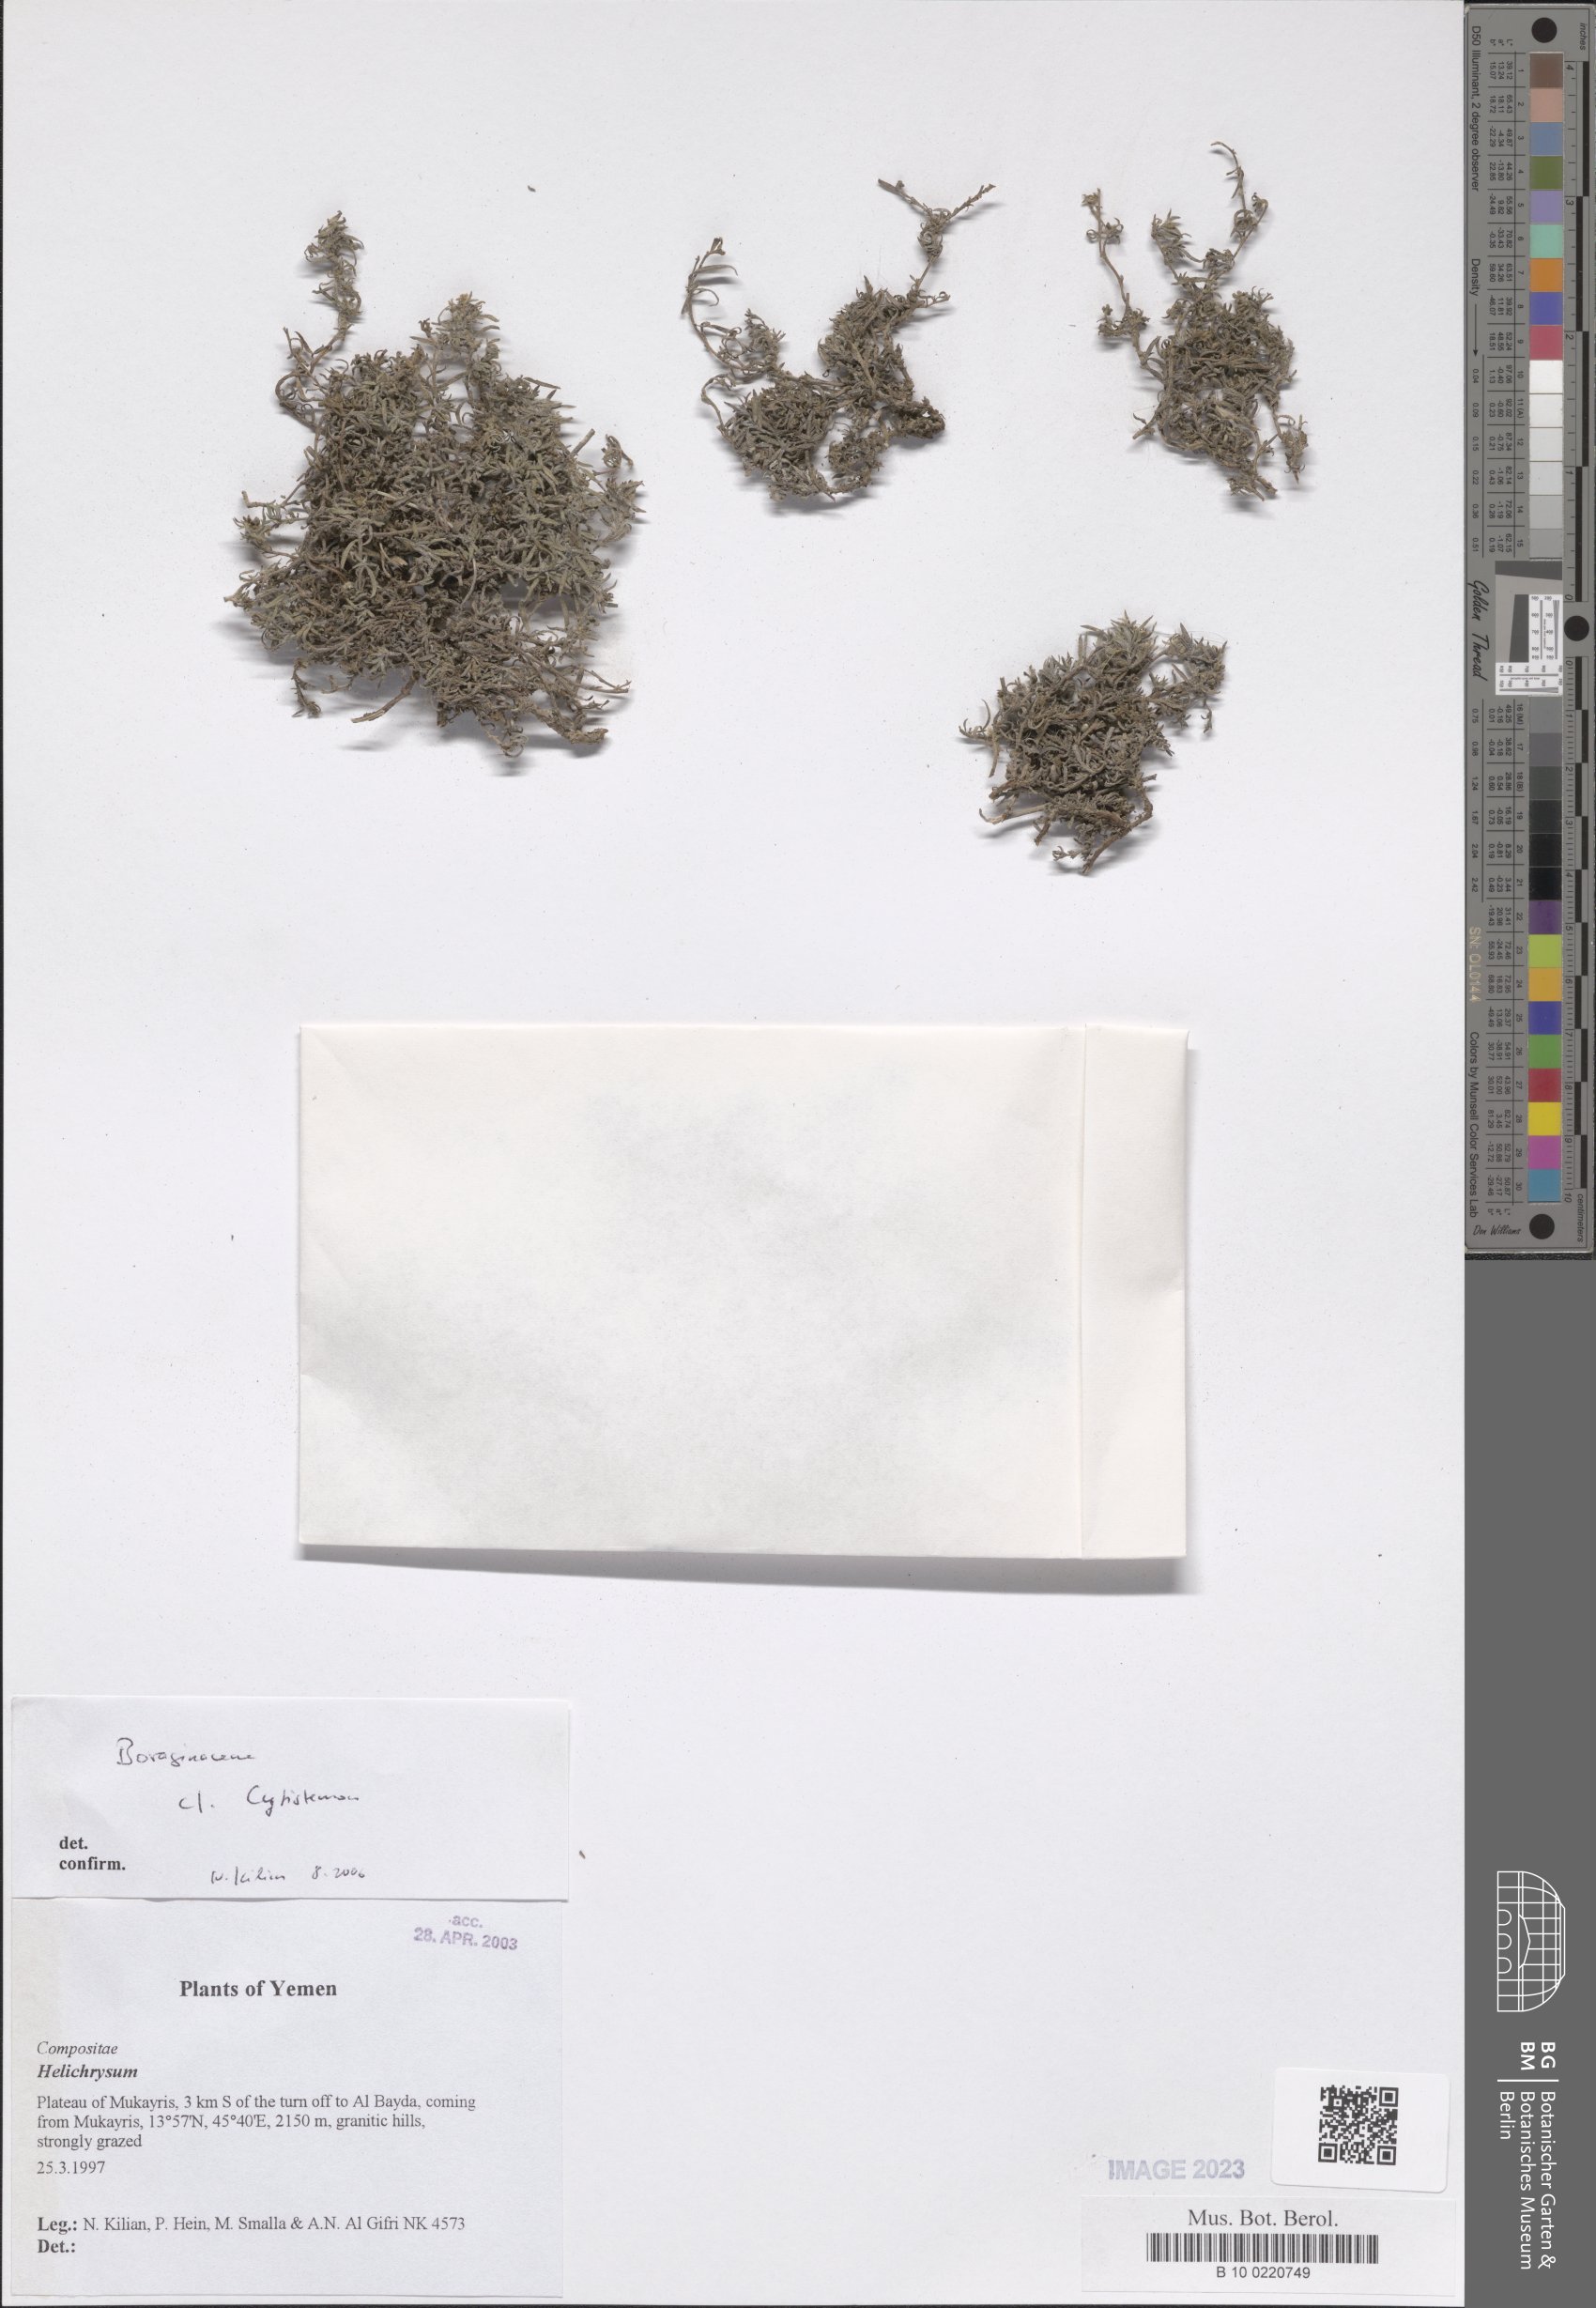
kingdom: Plantae
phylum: Tracheophyta
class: Magnoliopsida
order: Boraginales
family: Boraginaceae
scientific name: Boraginaceae
